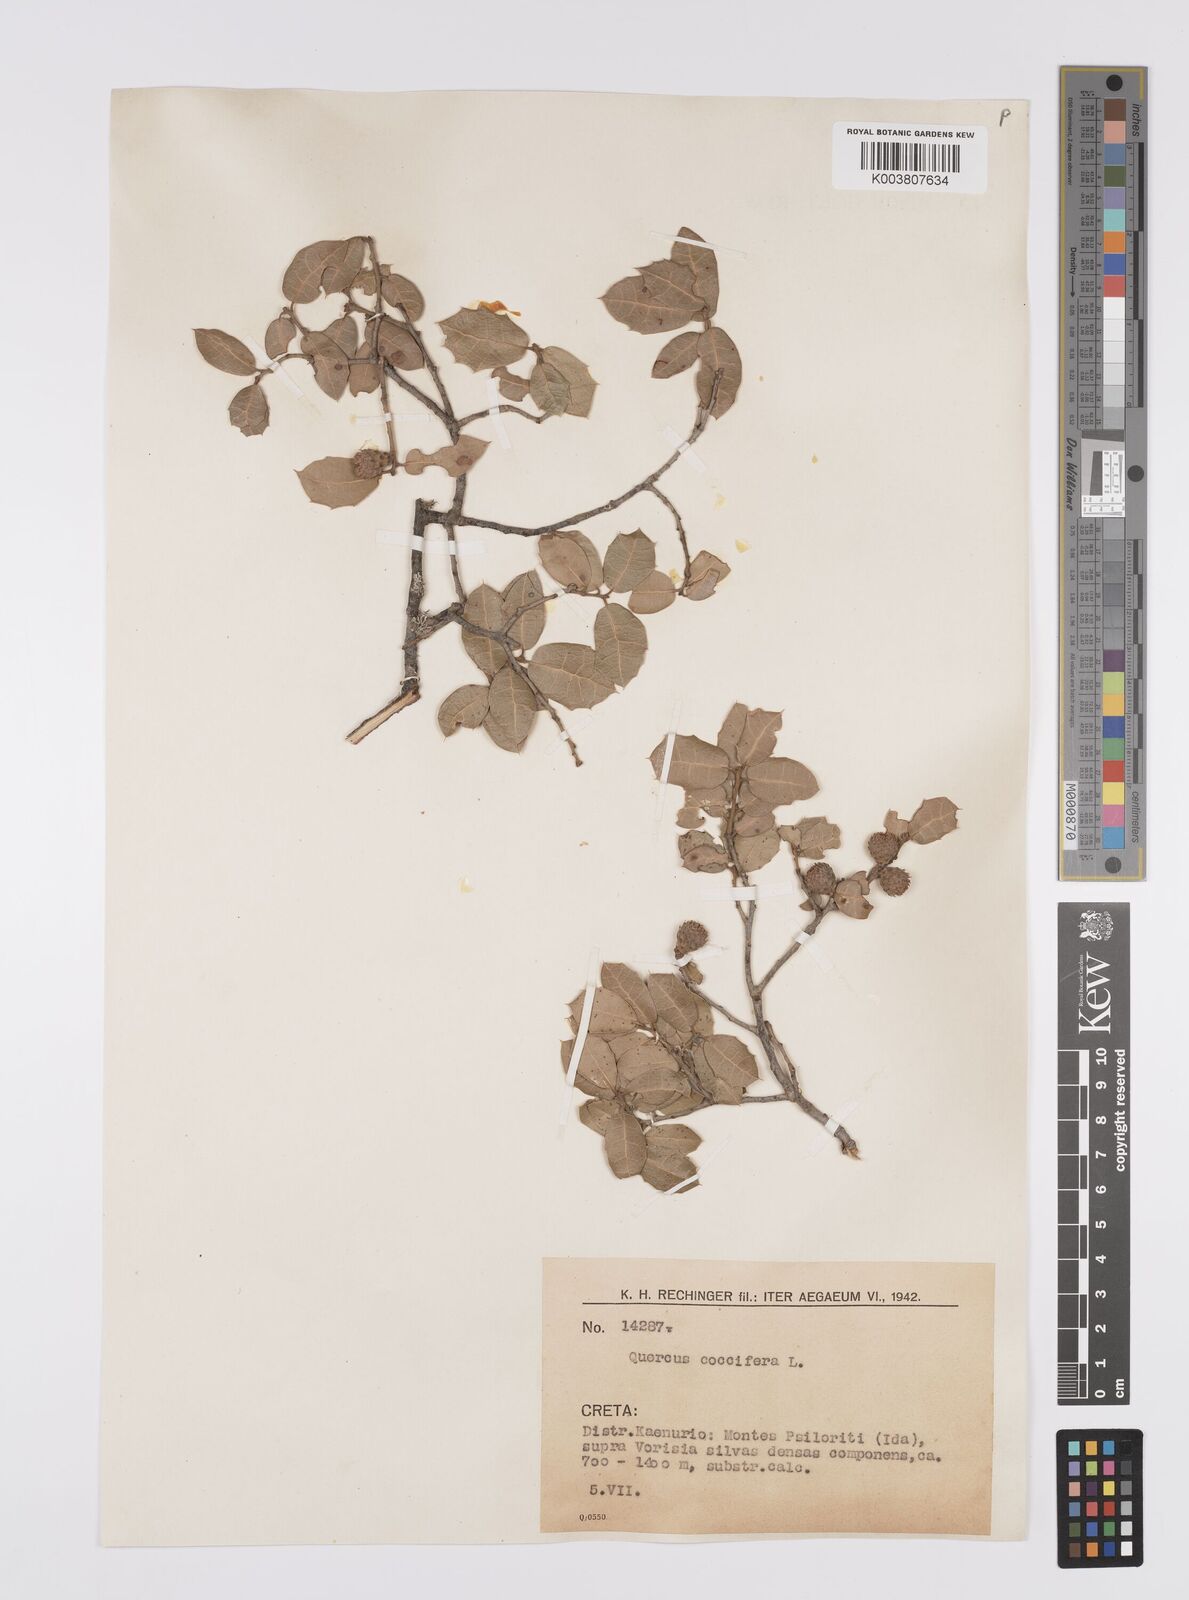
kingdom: Plantae
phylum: Tracheophyta
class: Magnoliopsida
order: Fagales
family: Fagaceae
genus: Quercus
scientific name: Quercus coccifera
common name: Kermes oak
